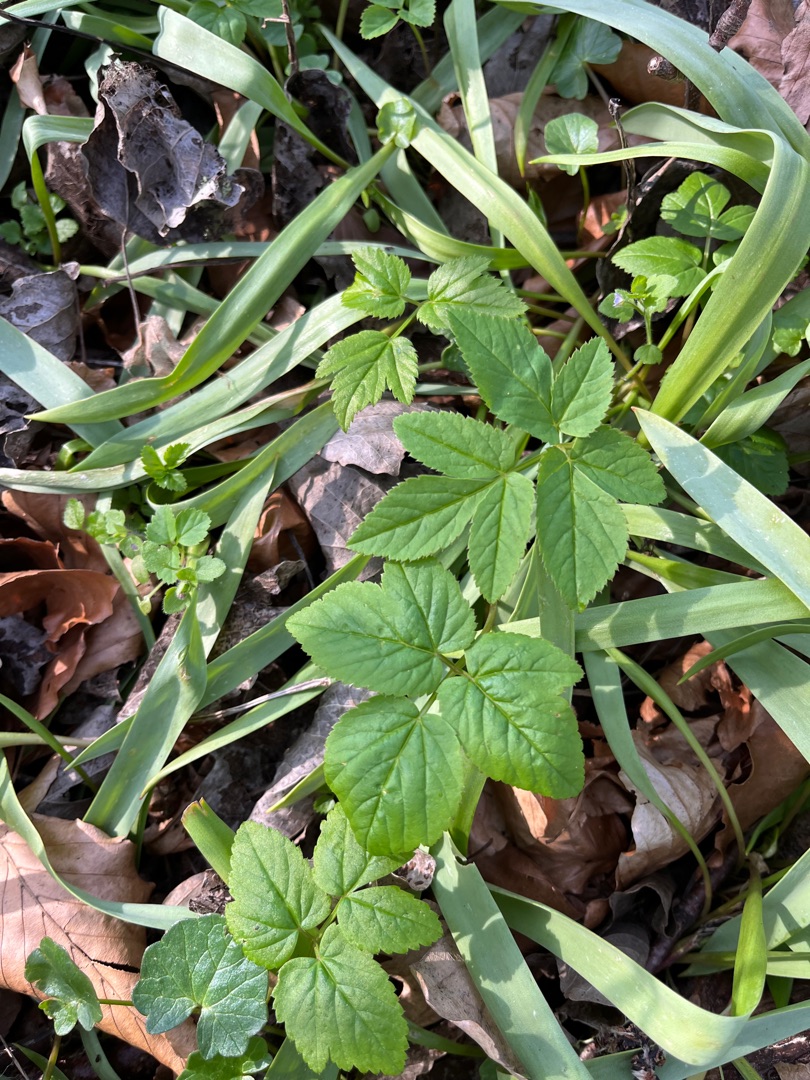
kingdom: Plantae
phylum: Tracheophyta
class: Magnoliopsida
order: Apiales
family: Apiaceae
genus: Aegopodium
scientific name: Aegopodium podagraria
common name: Skvalderkål
